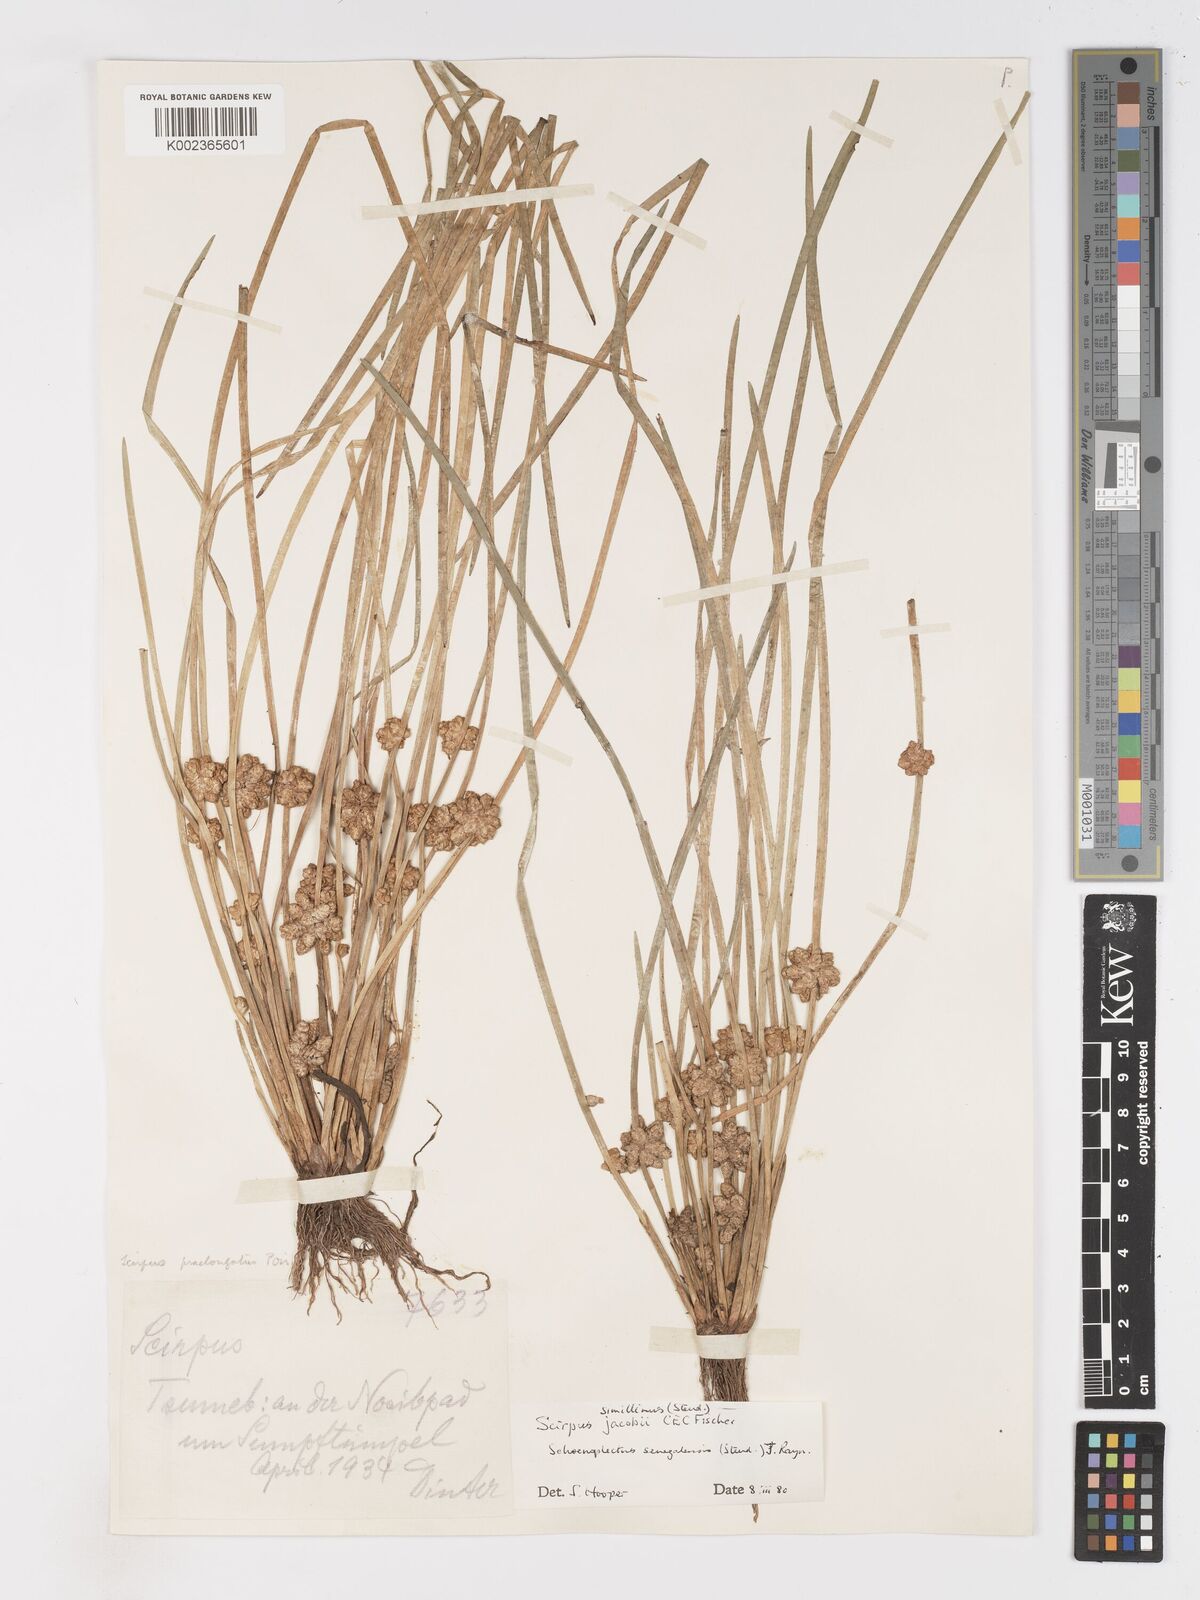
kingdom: Plantae
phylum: Tracheophyta
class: Liliopsida
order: Poales
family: Cyperaceae
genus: Schoenoplectiella
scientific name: Schoenoplectiella senegalensis
